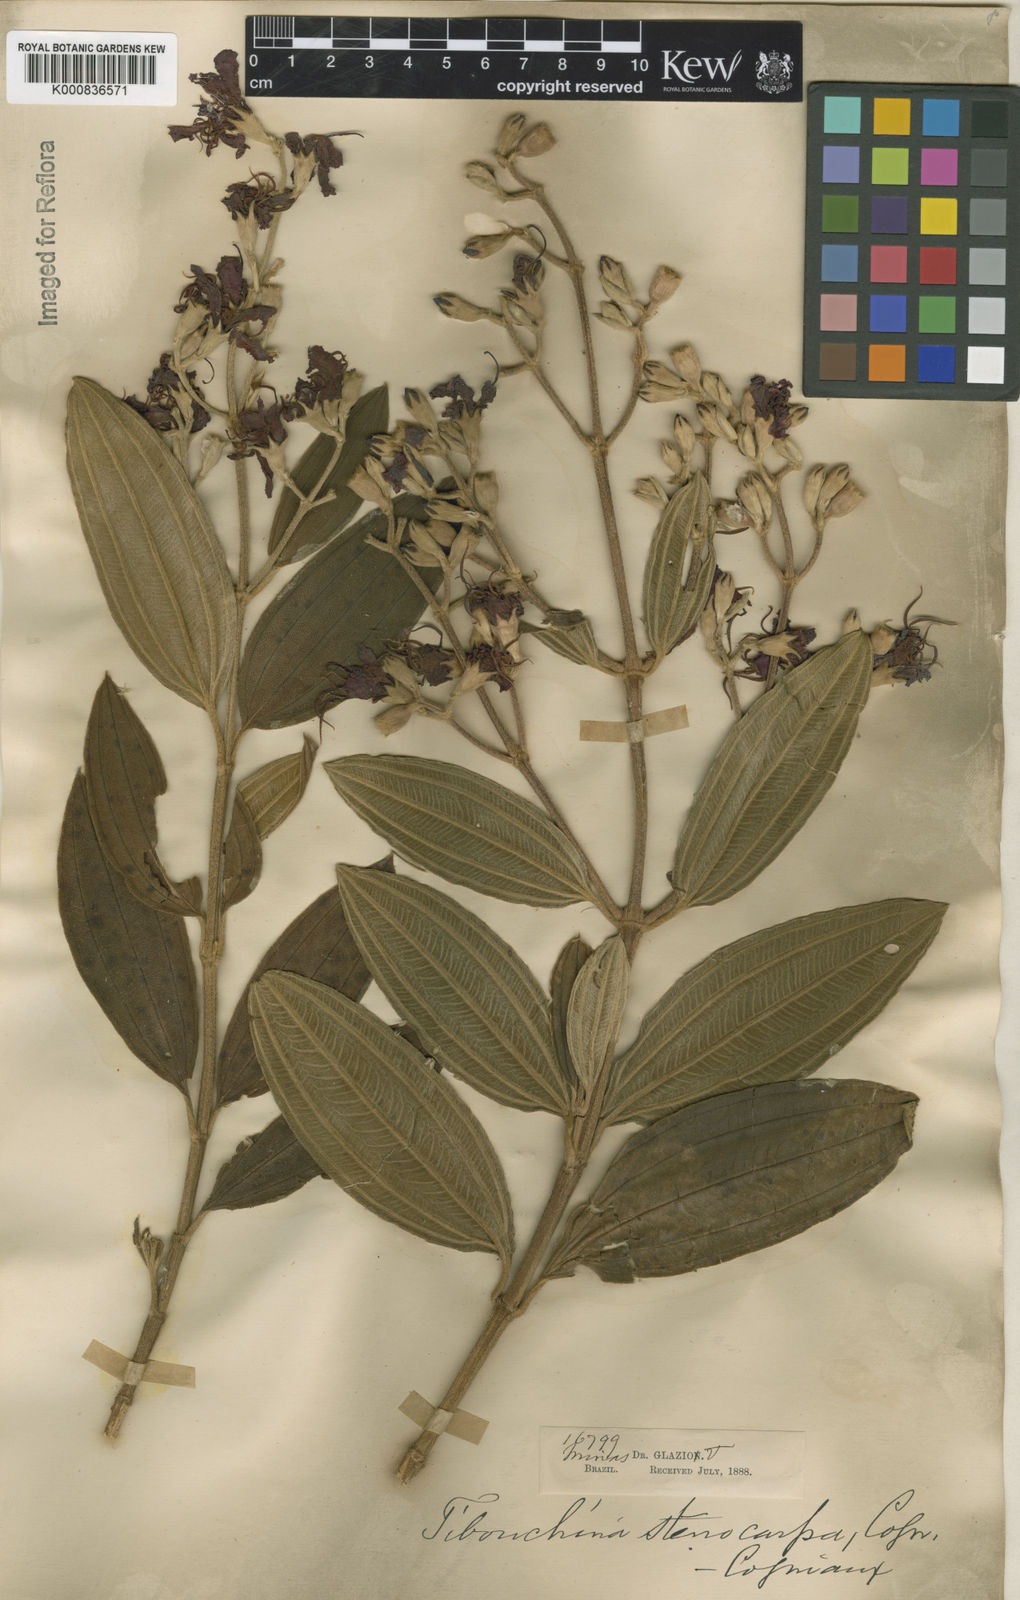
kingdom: Plantae
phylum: Tracheophyta
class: Magnoliopsida
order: Myrtales
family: Melastomataceae
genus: Pleroma
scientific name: Pleroma stenocarpum
